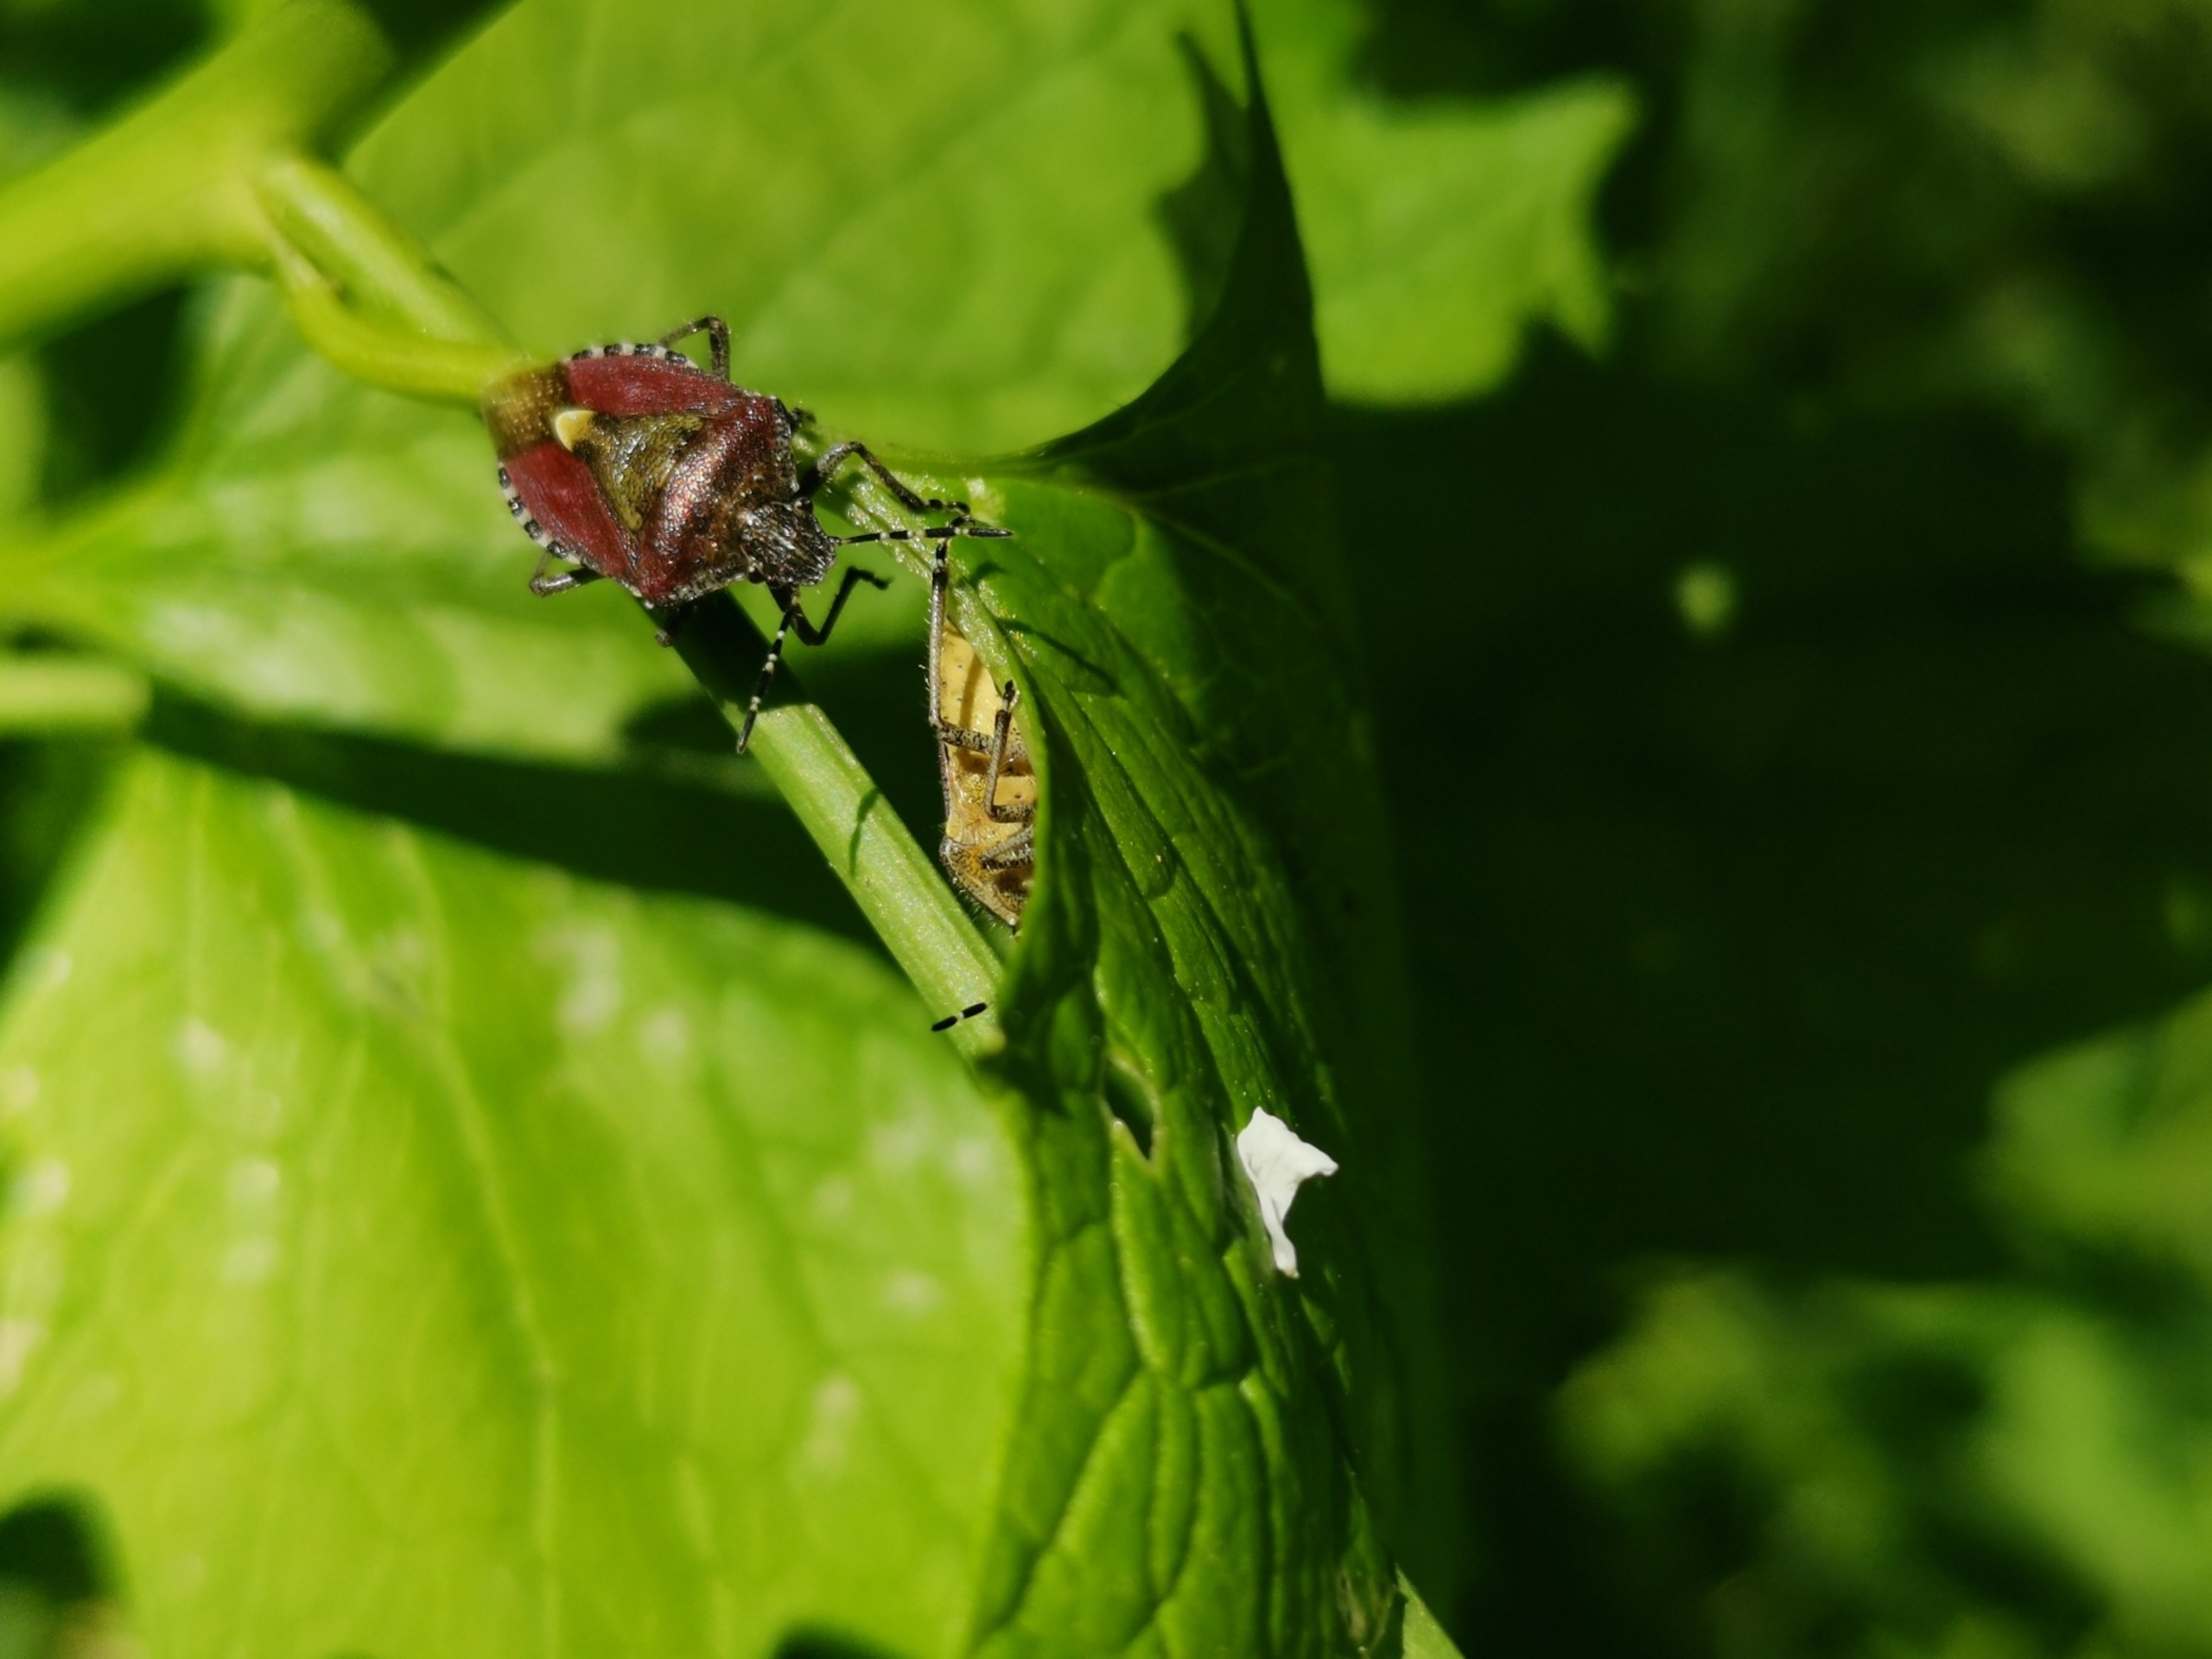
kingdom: Animalia
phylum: Arthropoda
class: Insecta
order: Hemiptera
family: Pentatomidae
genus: Dolycoris
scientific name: Dolycoris baccarum
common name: Almindelig bærtæge
